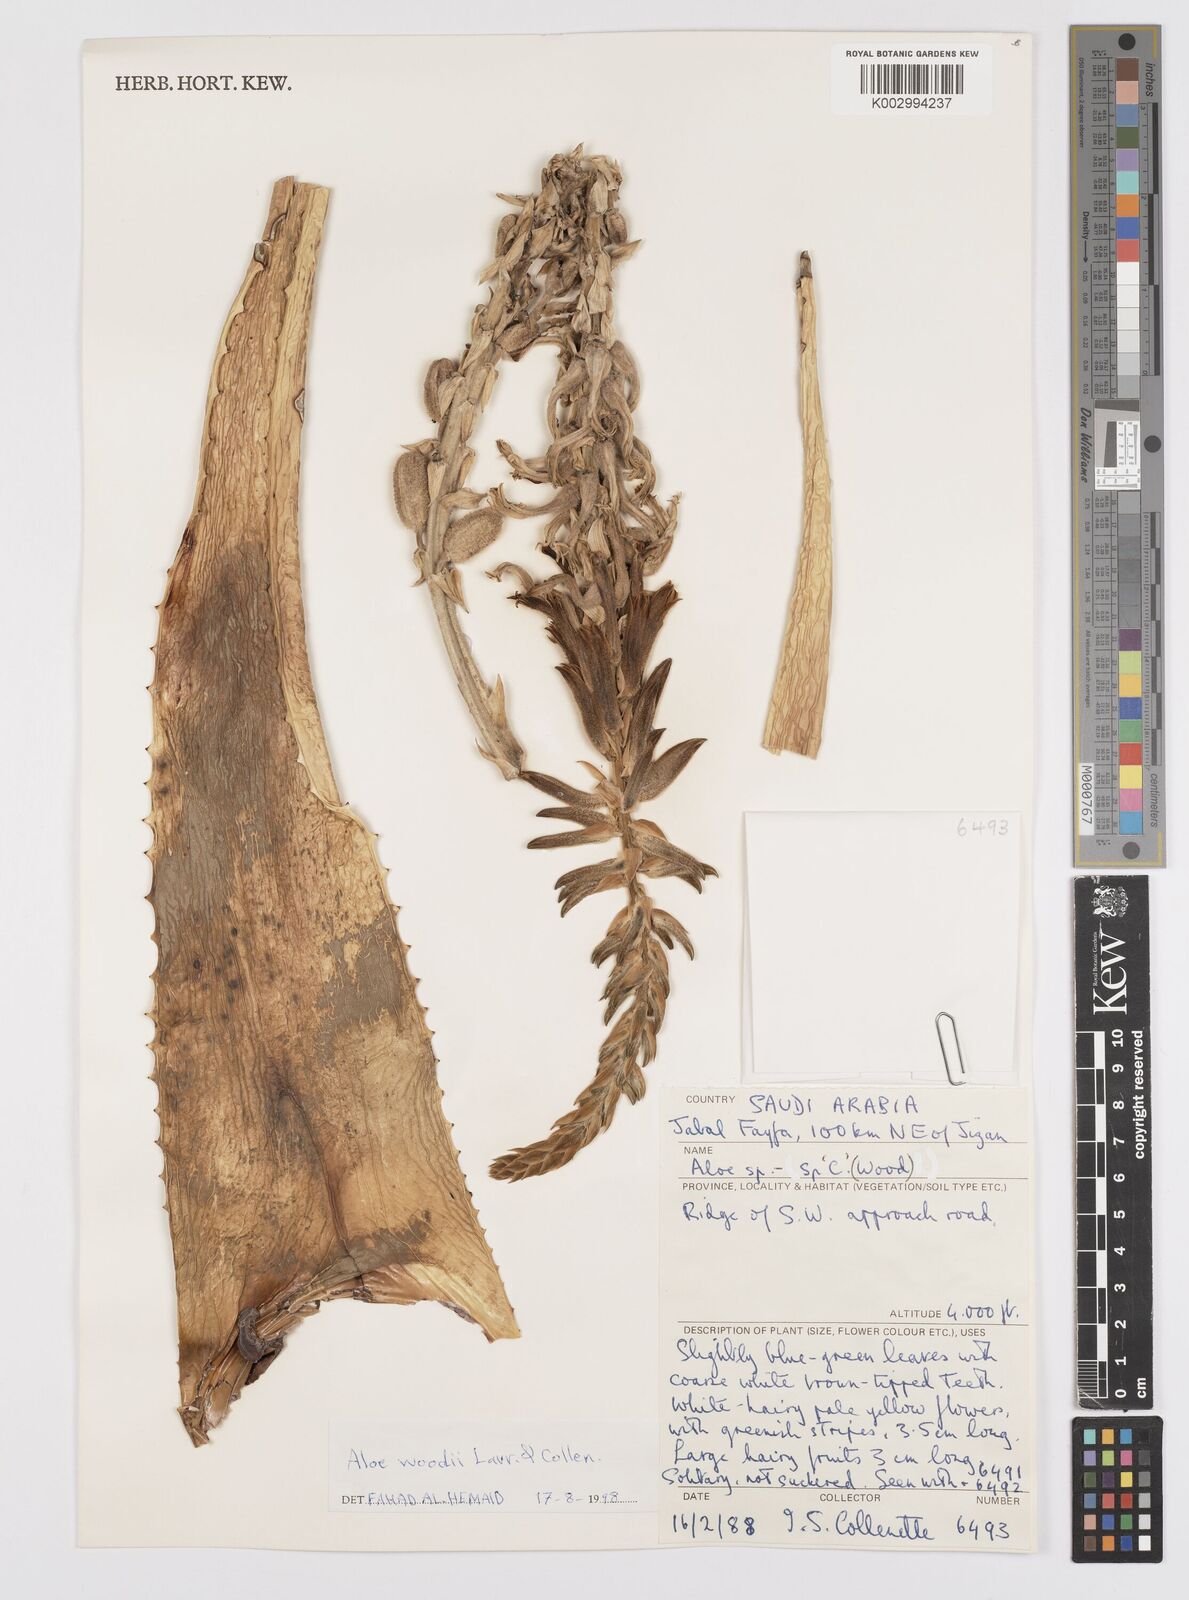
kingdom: Plantae
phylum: Tracheophyta
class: Liliopsida
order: Asparagales
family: Asphodelaceae
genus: Aloe
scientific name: Aloe woodii
